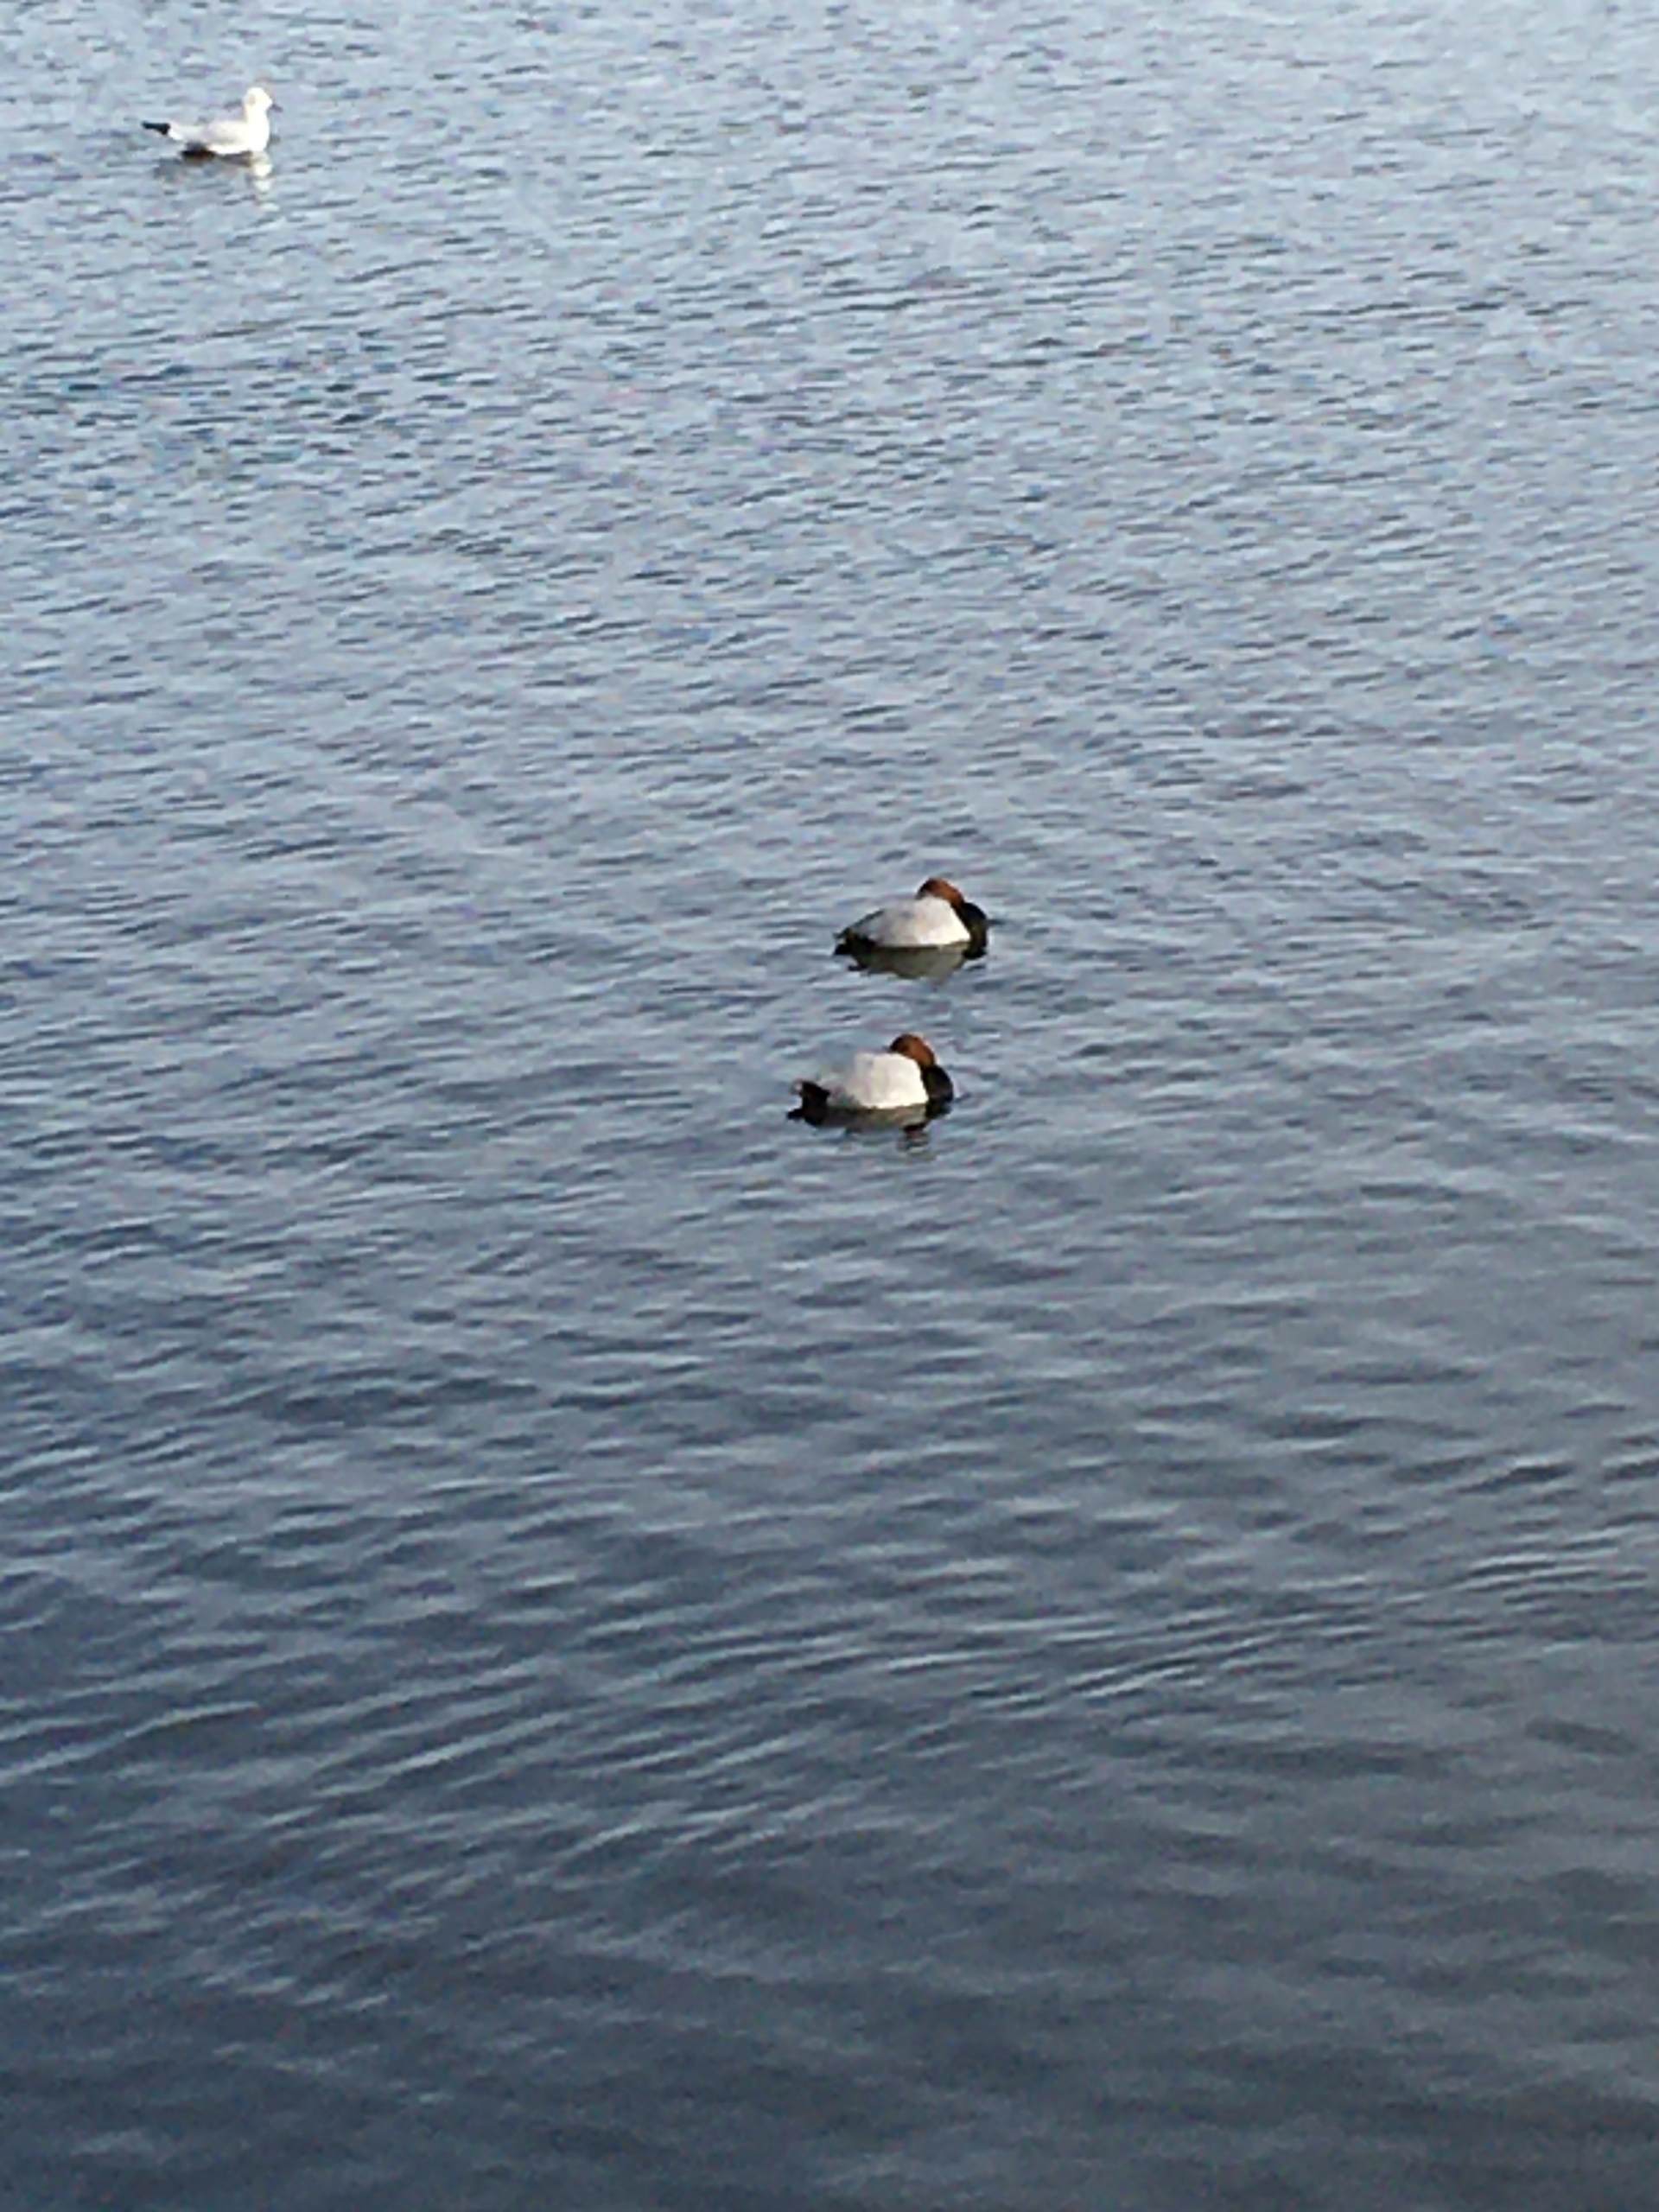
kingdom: Animalia
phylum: Chordata
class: Aves
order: Anseriformes
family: Anatidae
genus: Aythya
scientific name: Aythya ferina
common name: Taffeland
